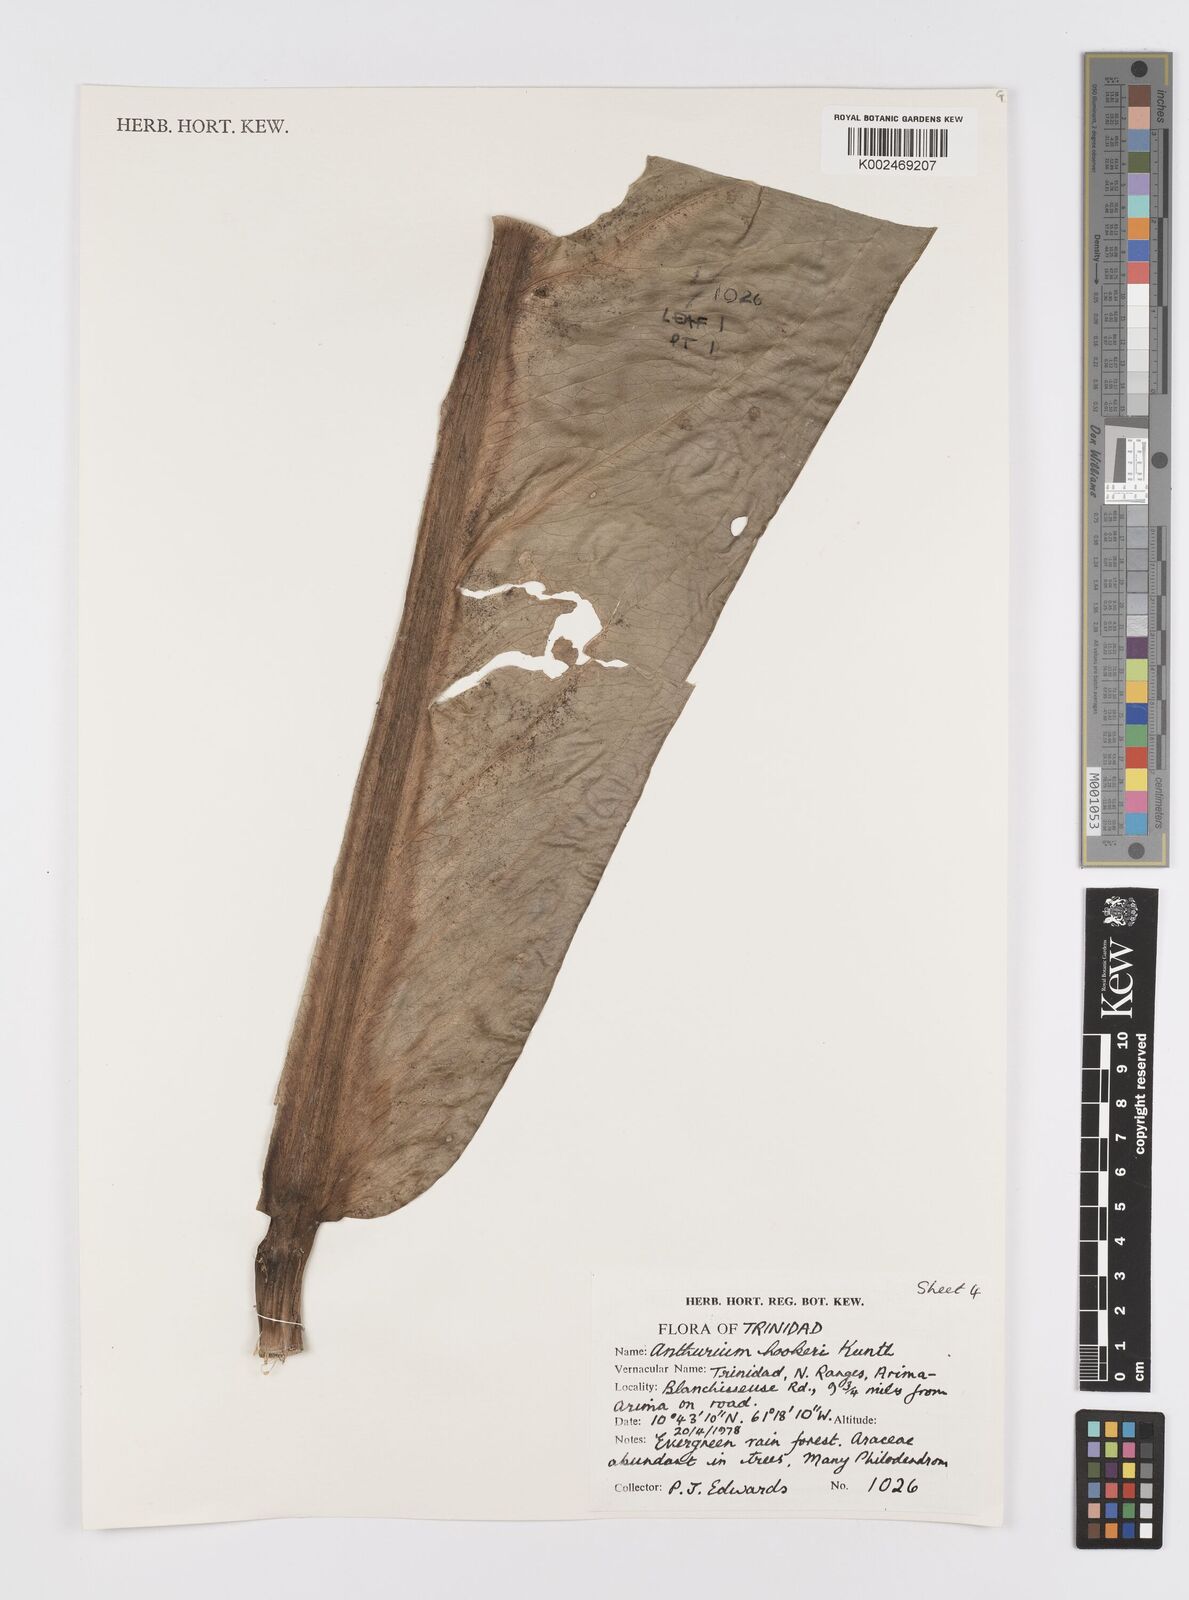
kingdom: Plantae
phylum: Tracheophyta
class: Liliopsida
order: Alismatales
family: Araceae
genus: Anthurium
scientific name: Anthurium hookeri
